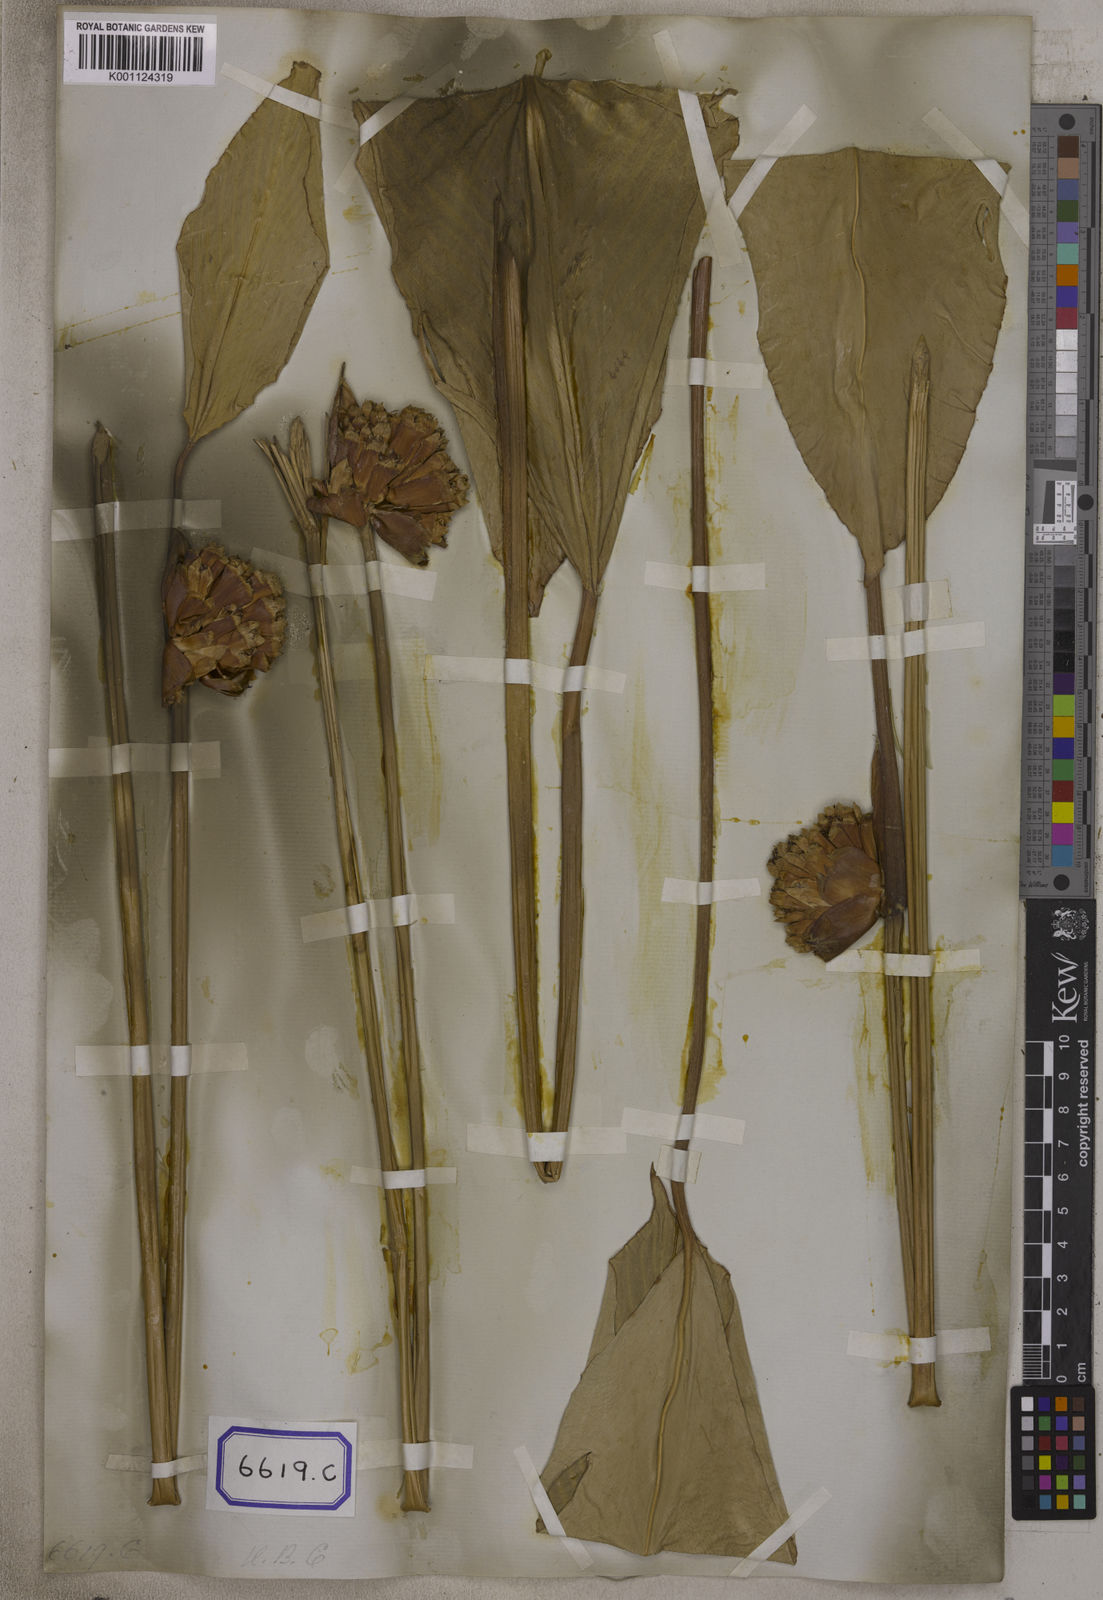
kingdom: Plantae
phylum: Tracheophyta
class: Liliopsida
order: Zingiberales
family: Marantaceae
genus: Phrynium
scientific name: Phrynium pubinerve
